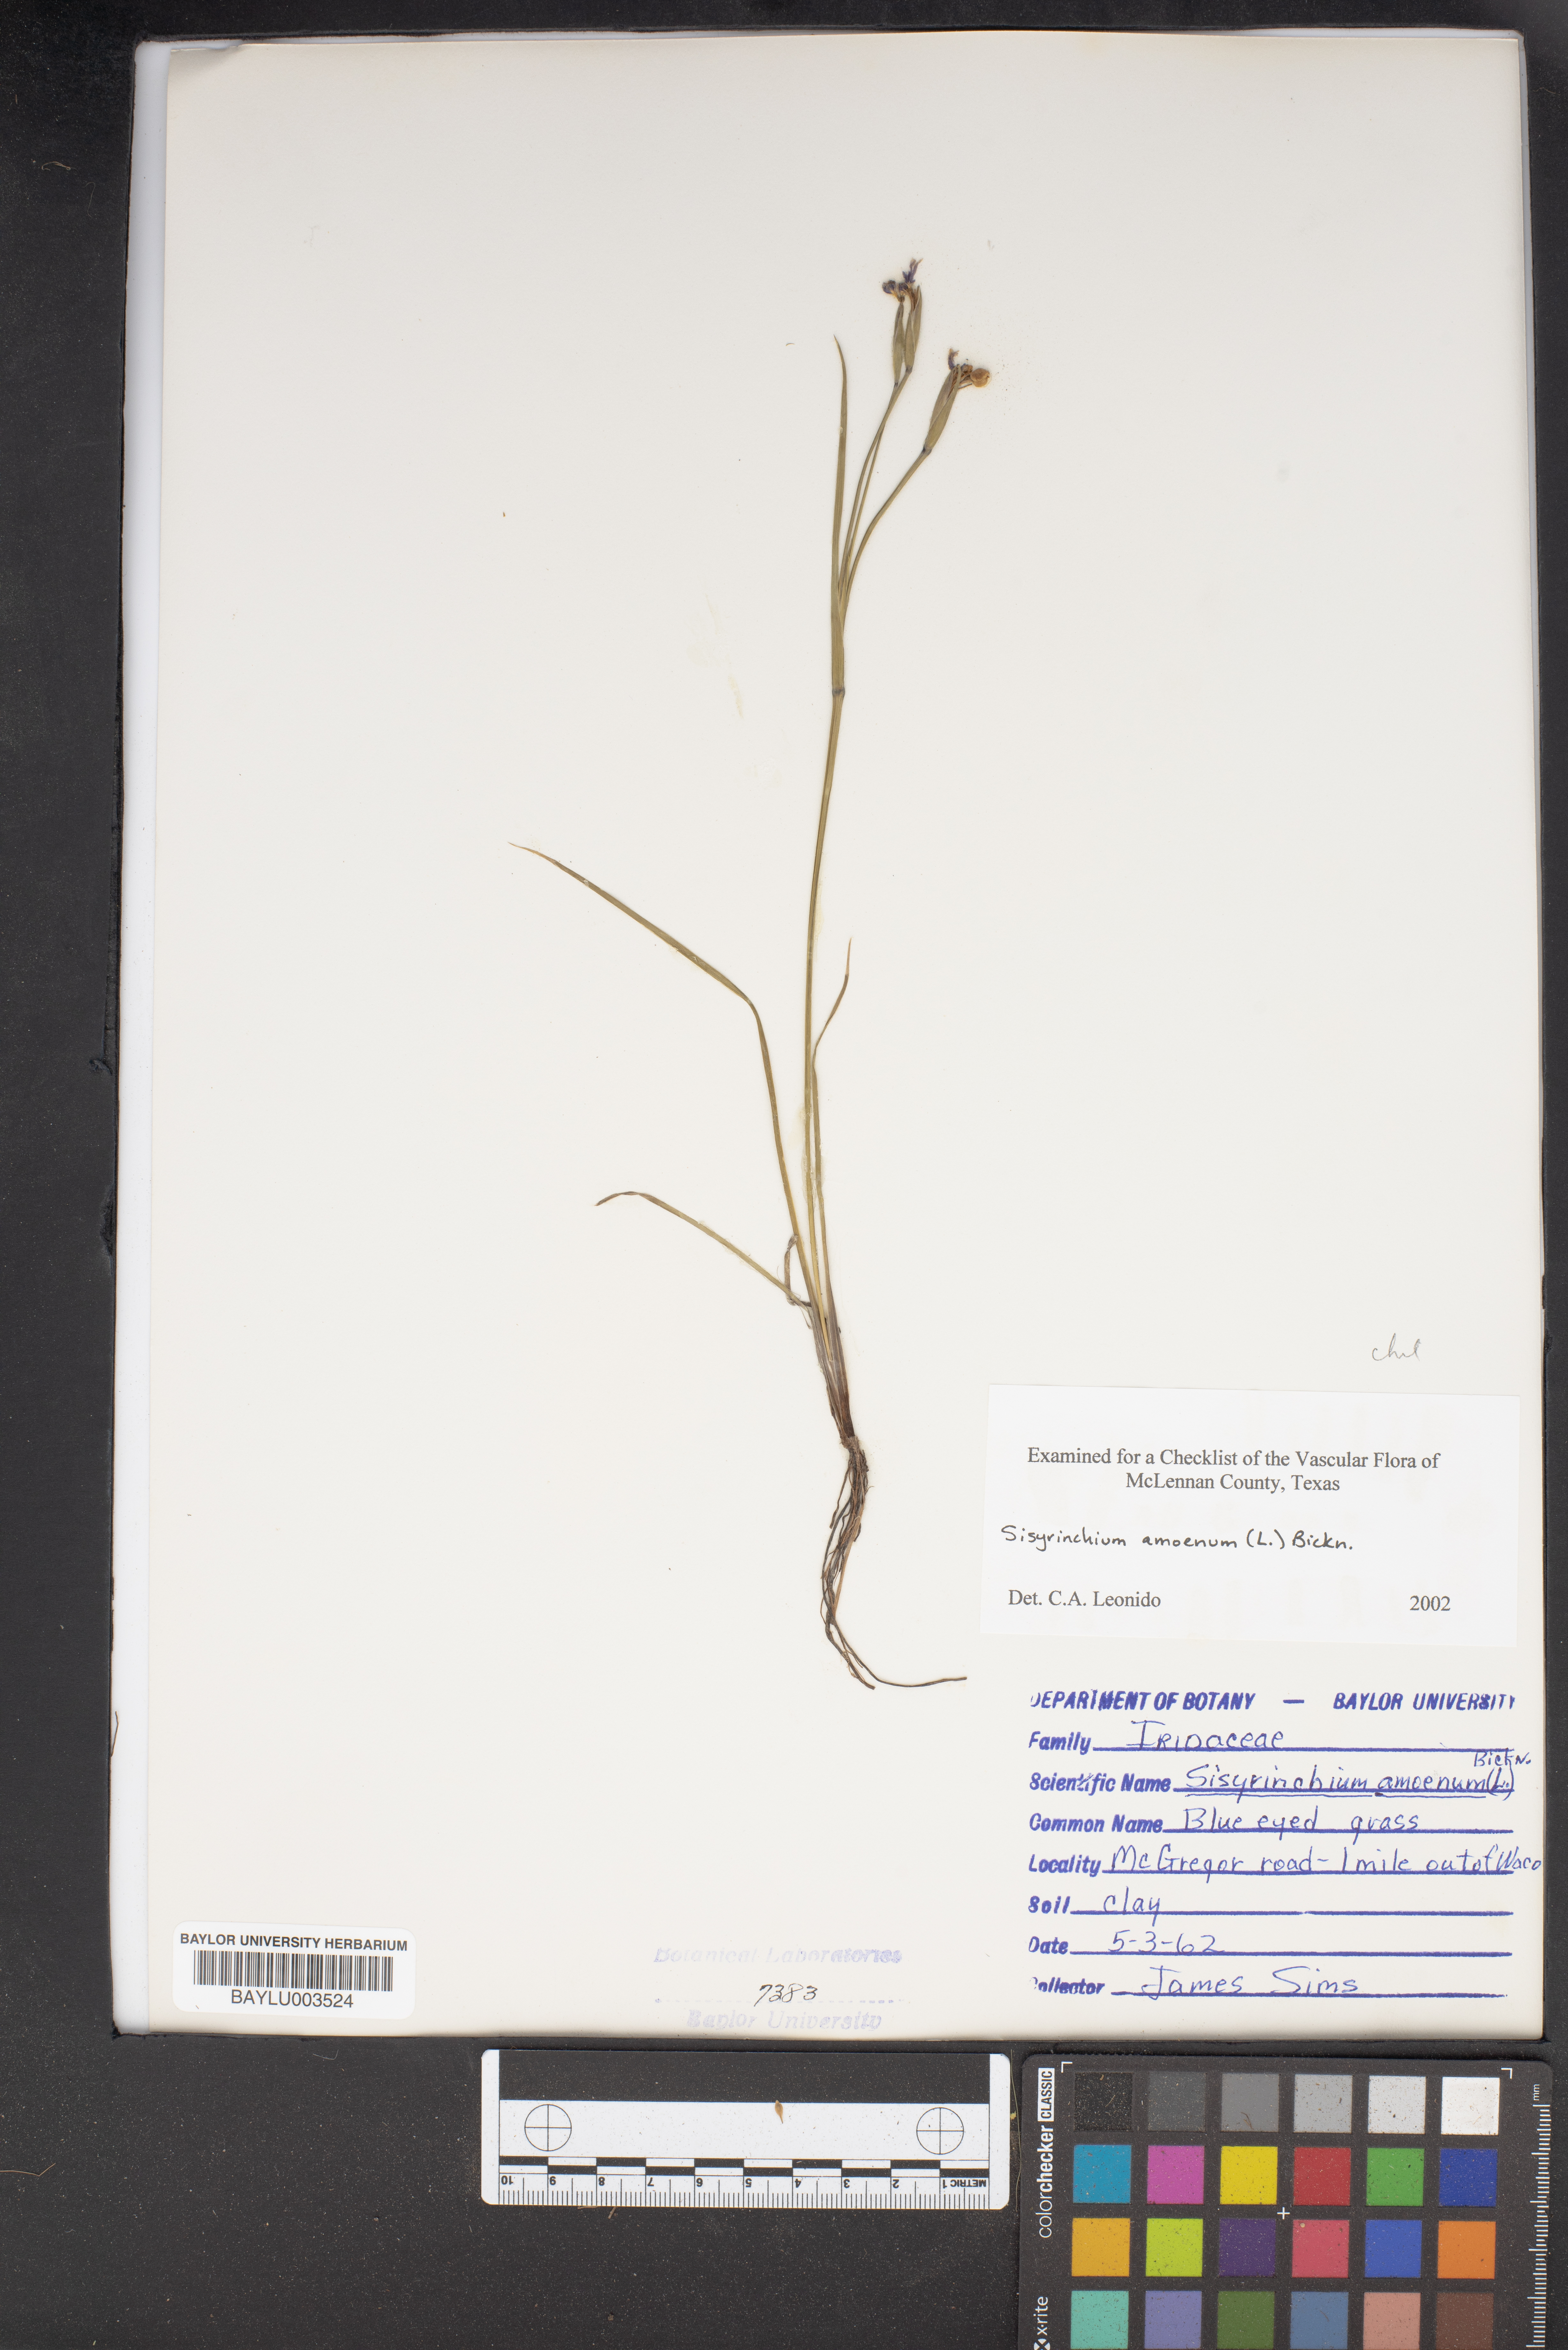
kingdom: Plantae
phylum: Tracheophyta
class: Liliopsida
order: Asparagales
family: Iridaceae
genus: Sisyrinchium
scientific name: Sisyrinchium ensigerum
